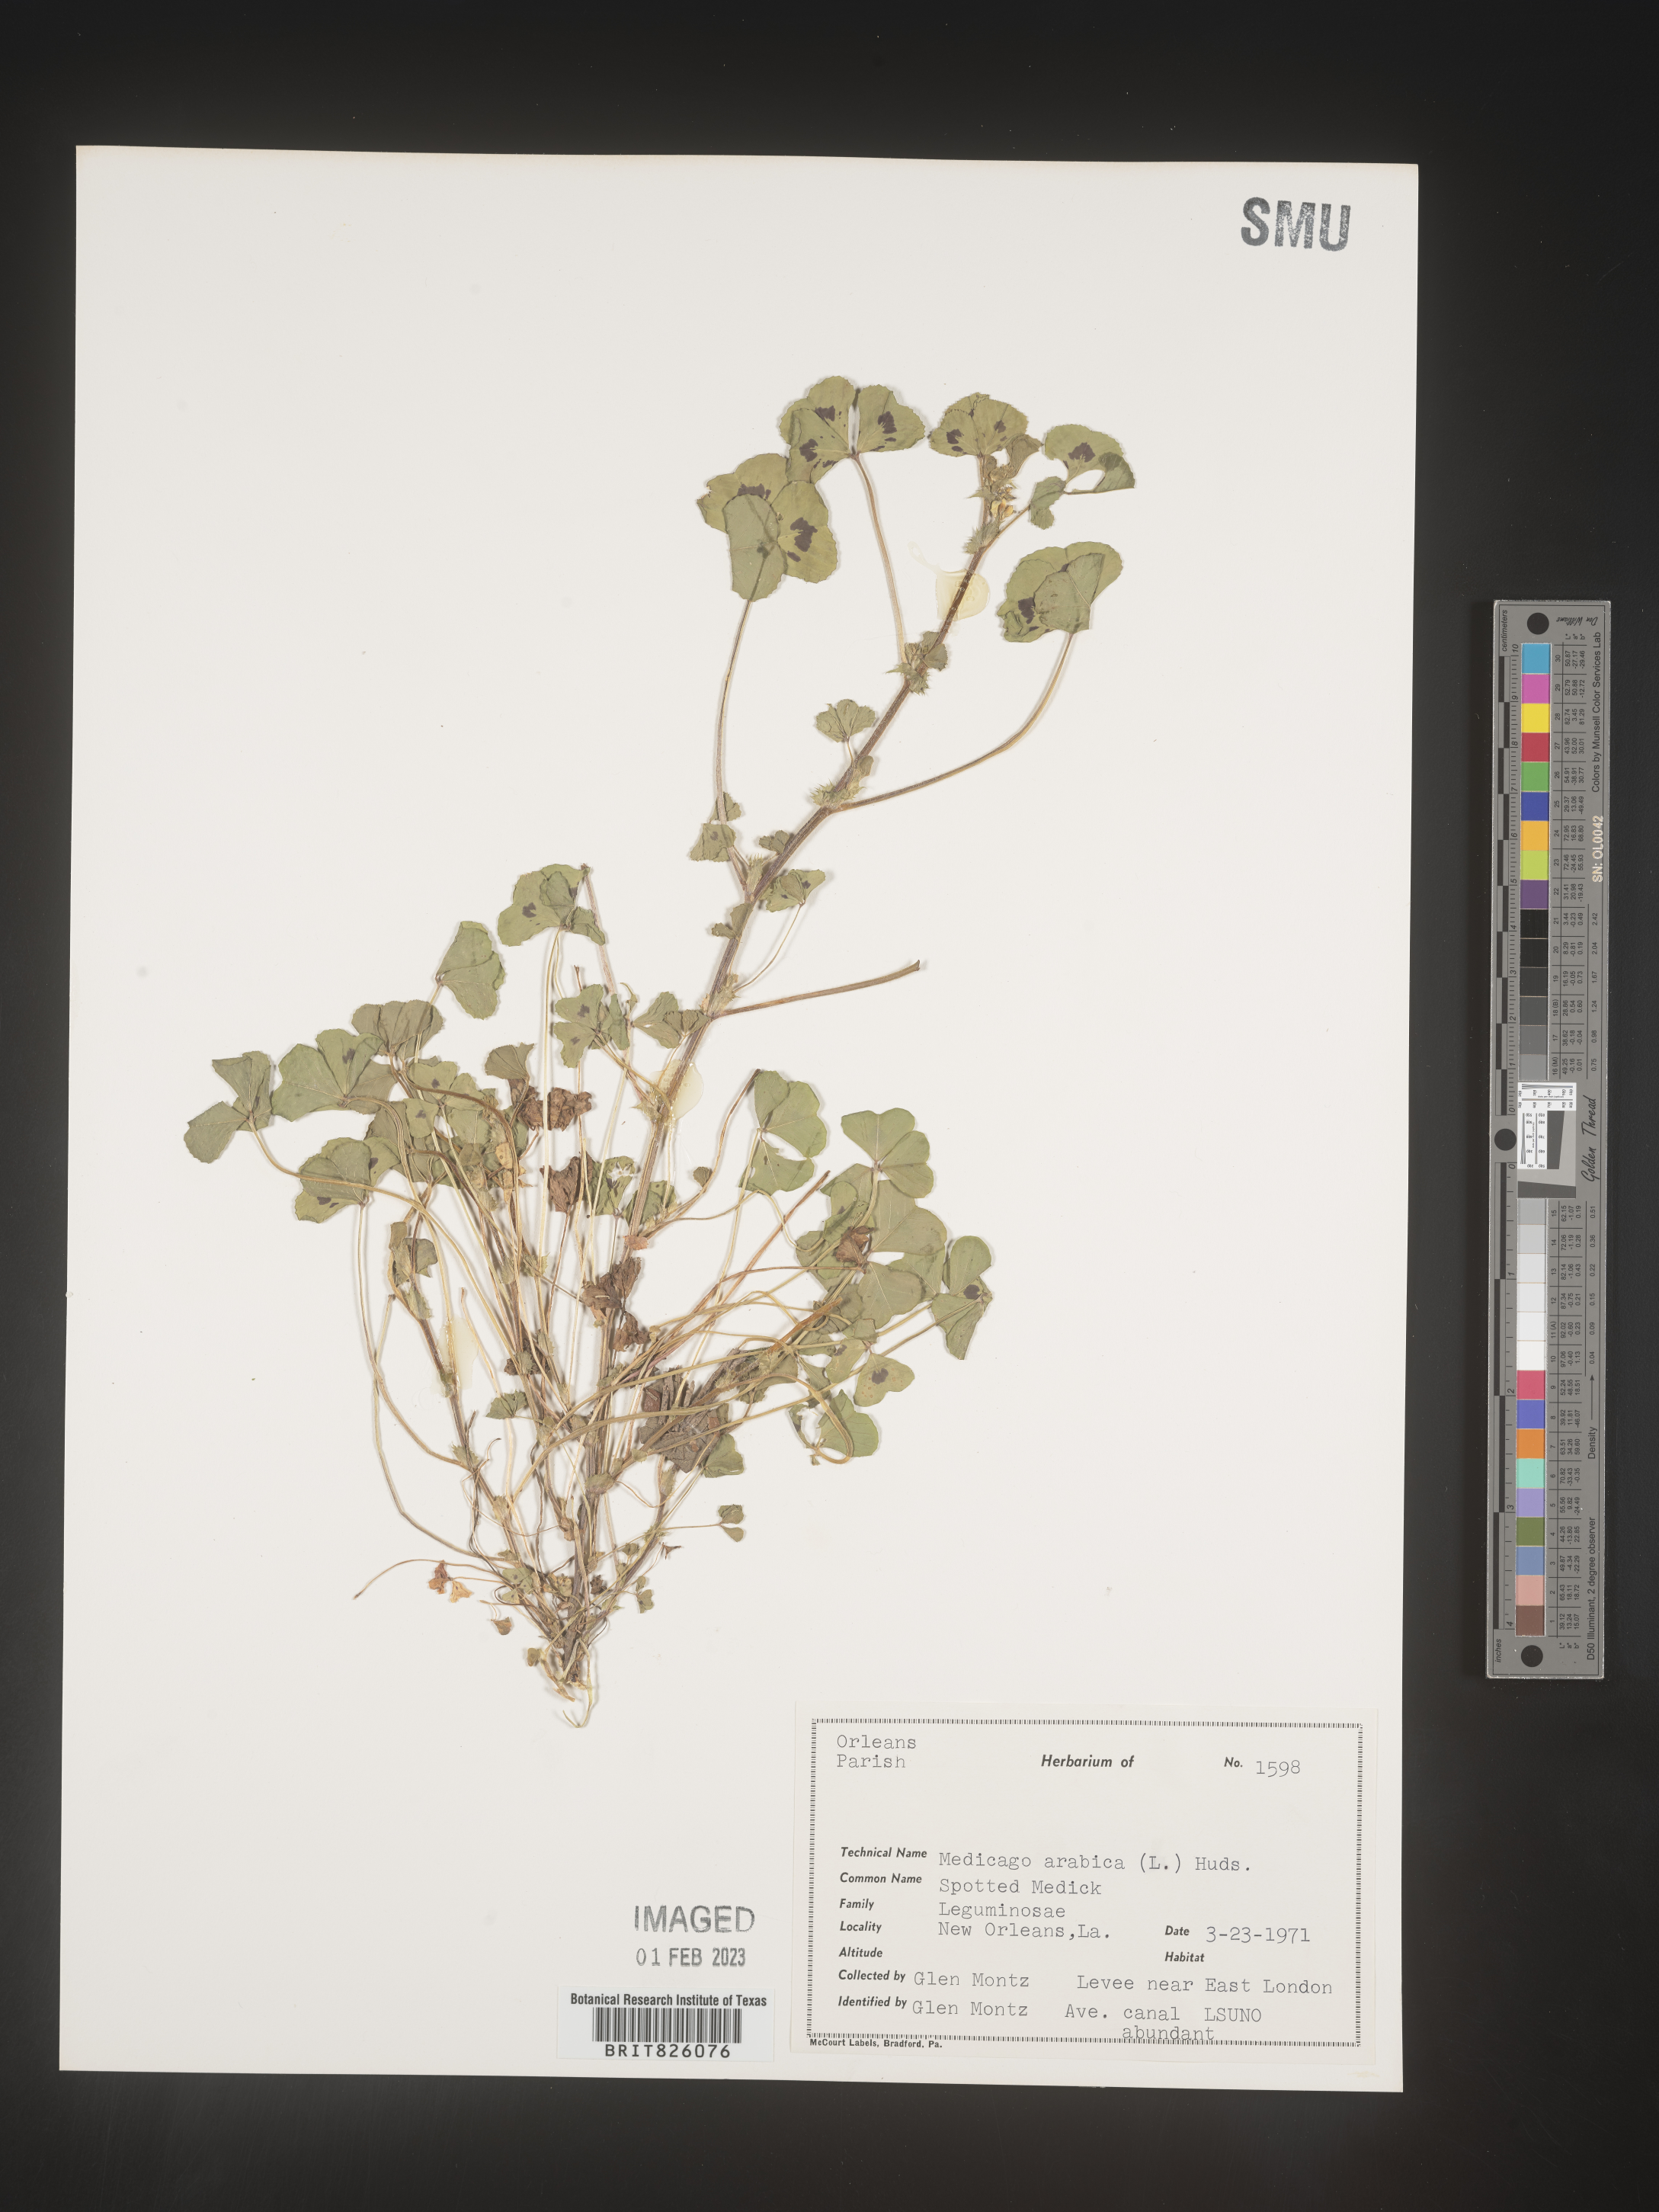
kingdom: Plantae
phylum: Tracheophyta
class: Magnoliopsida
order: Fabales
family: Fabaceae
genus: Medicago
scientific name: Medicago arabica
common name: Spotted medick
